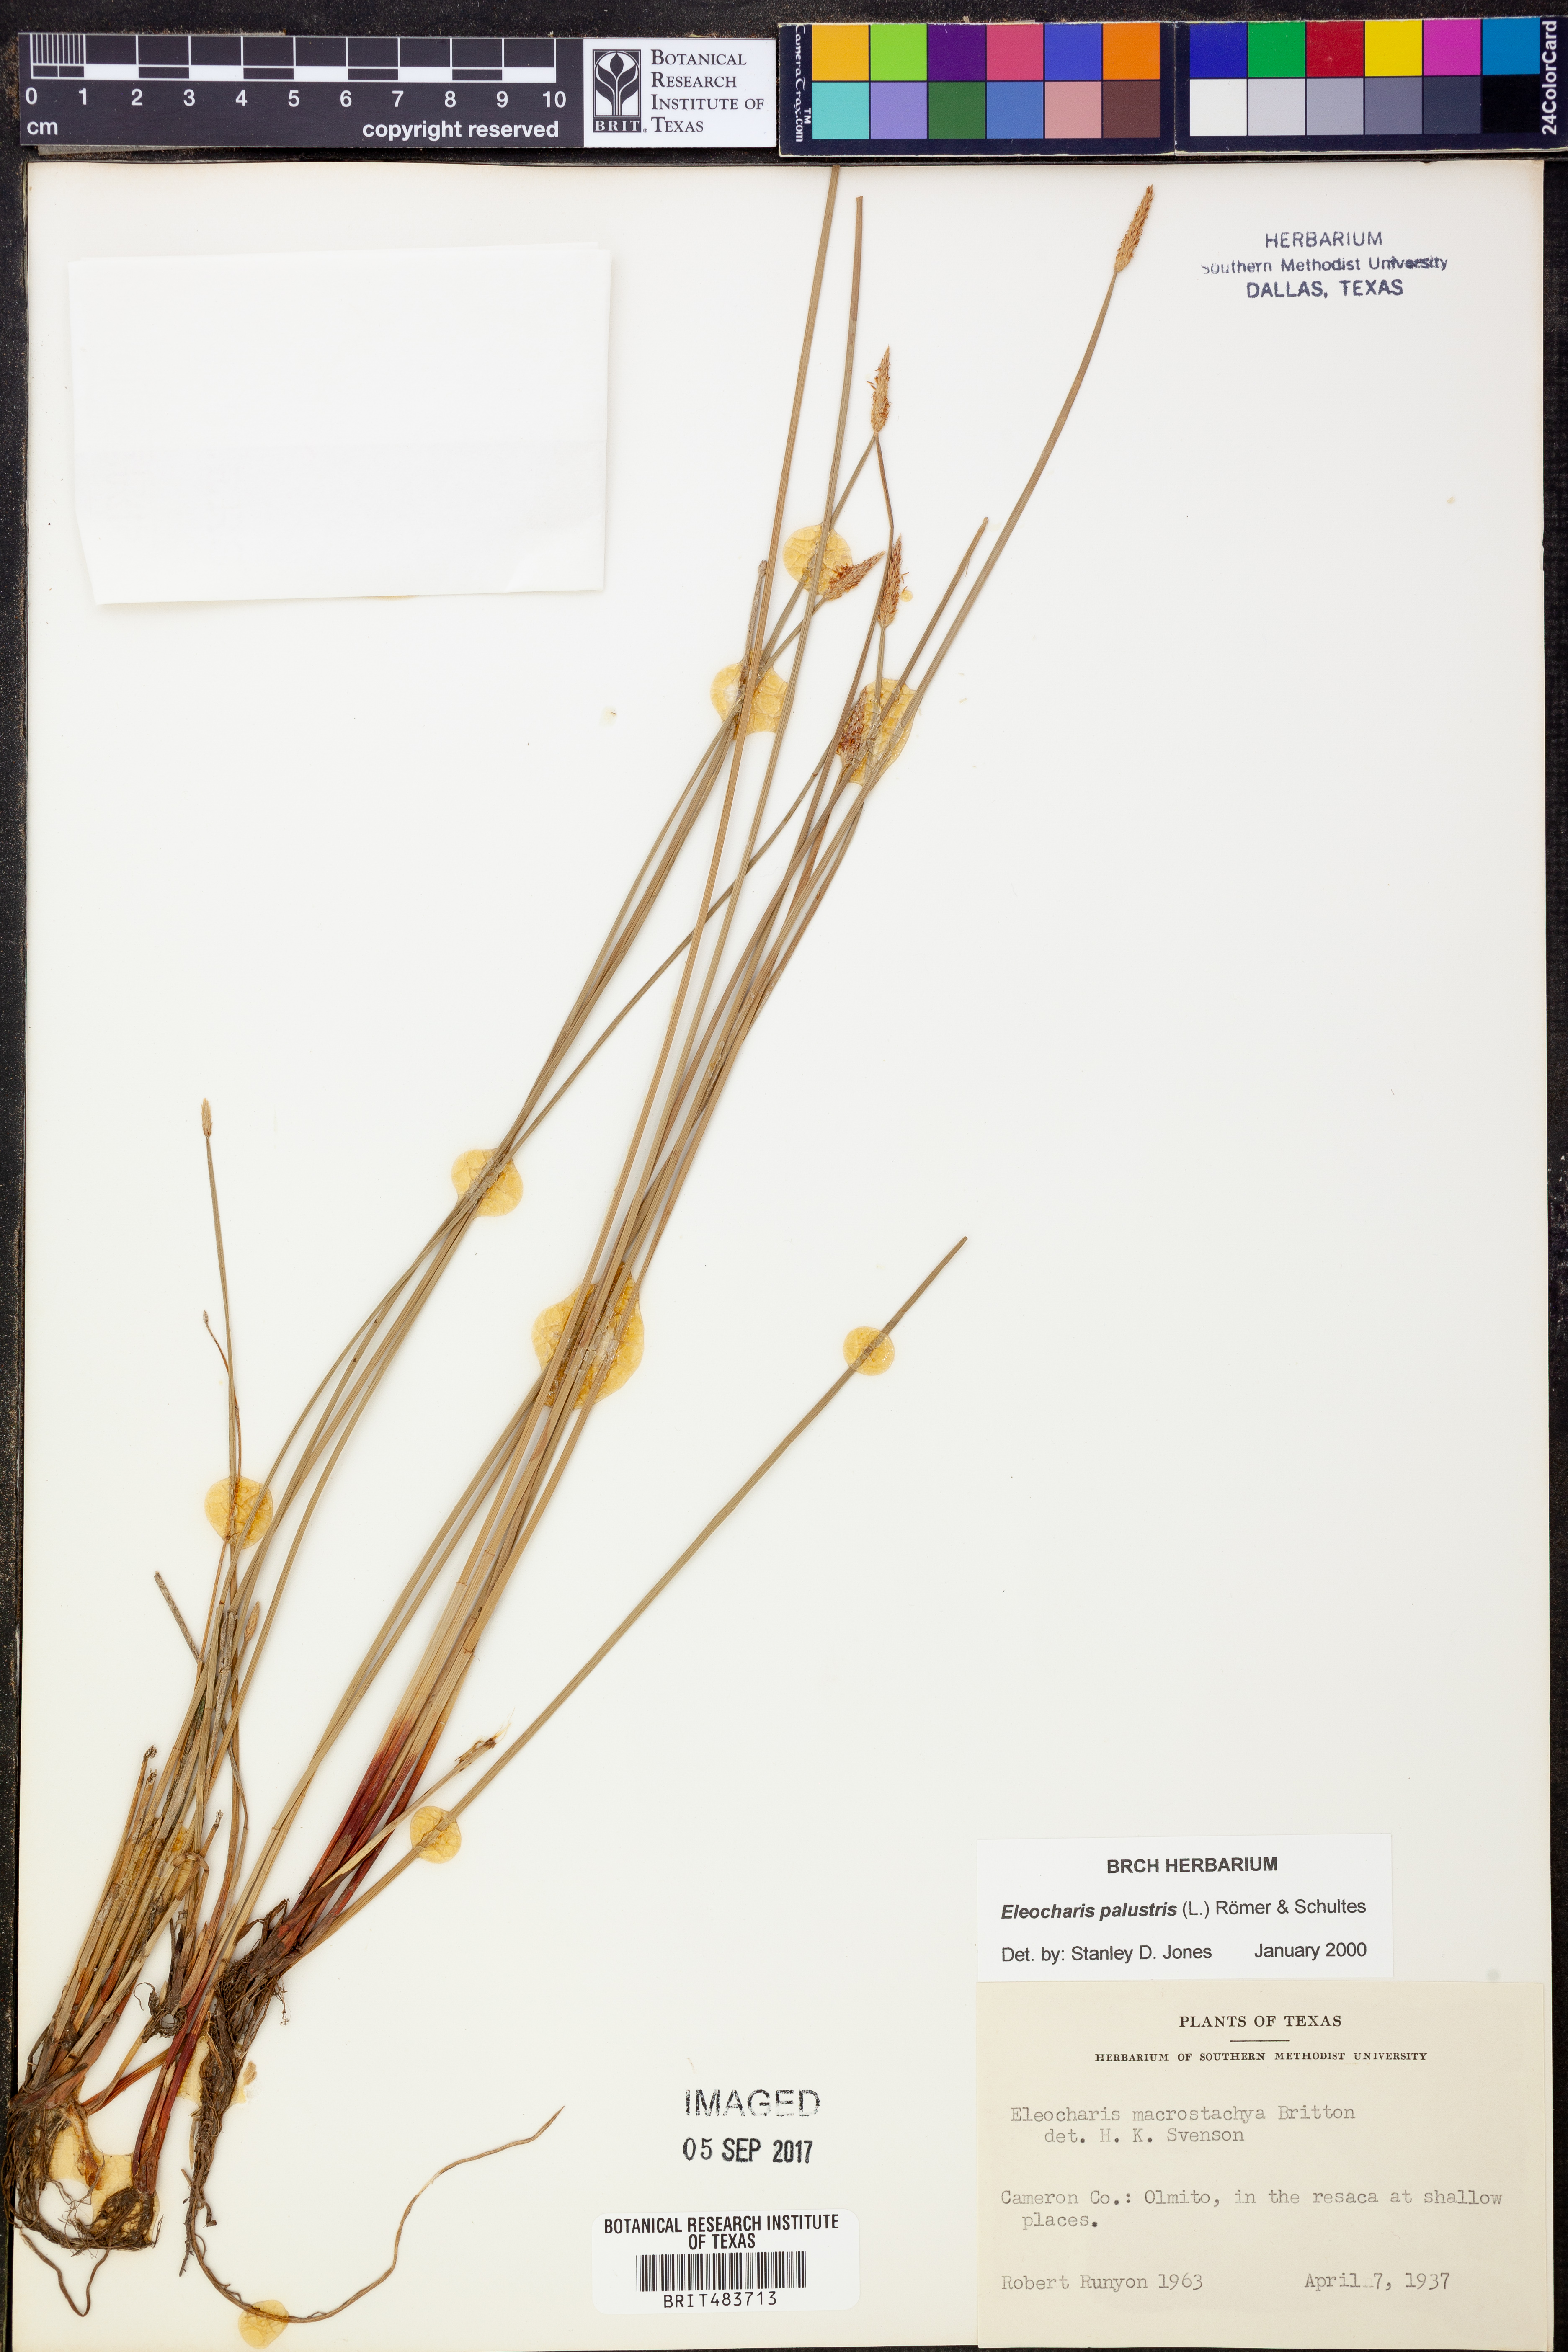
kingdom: Plantae
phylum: Tracheophyta
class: Liliopsida
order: Poales
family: Cyperaceae
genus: Eleocharis
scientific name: Eleocharis palustris
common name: Common spike-rush
